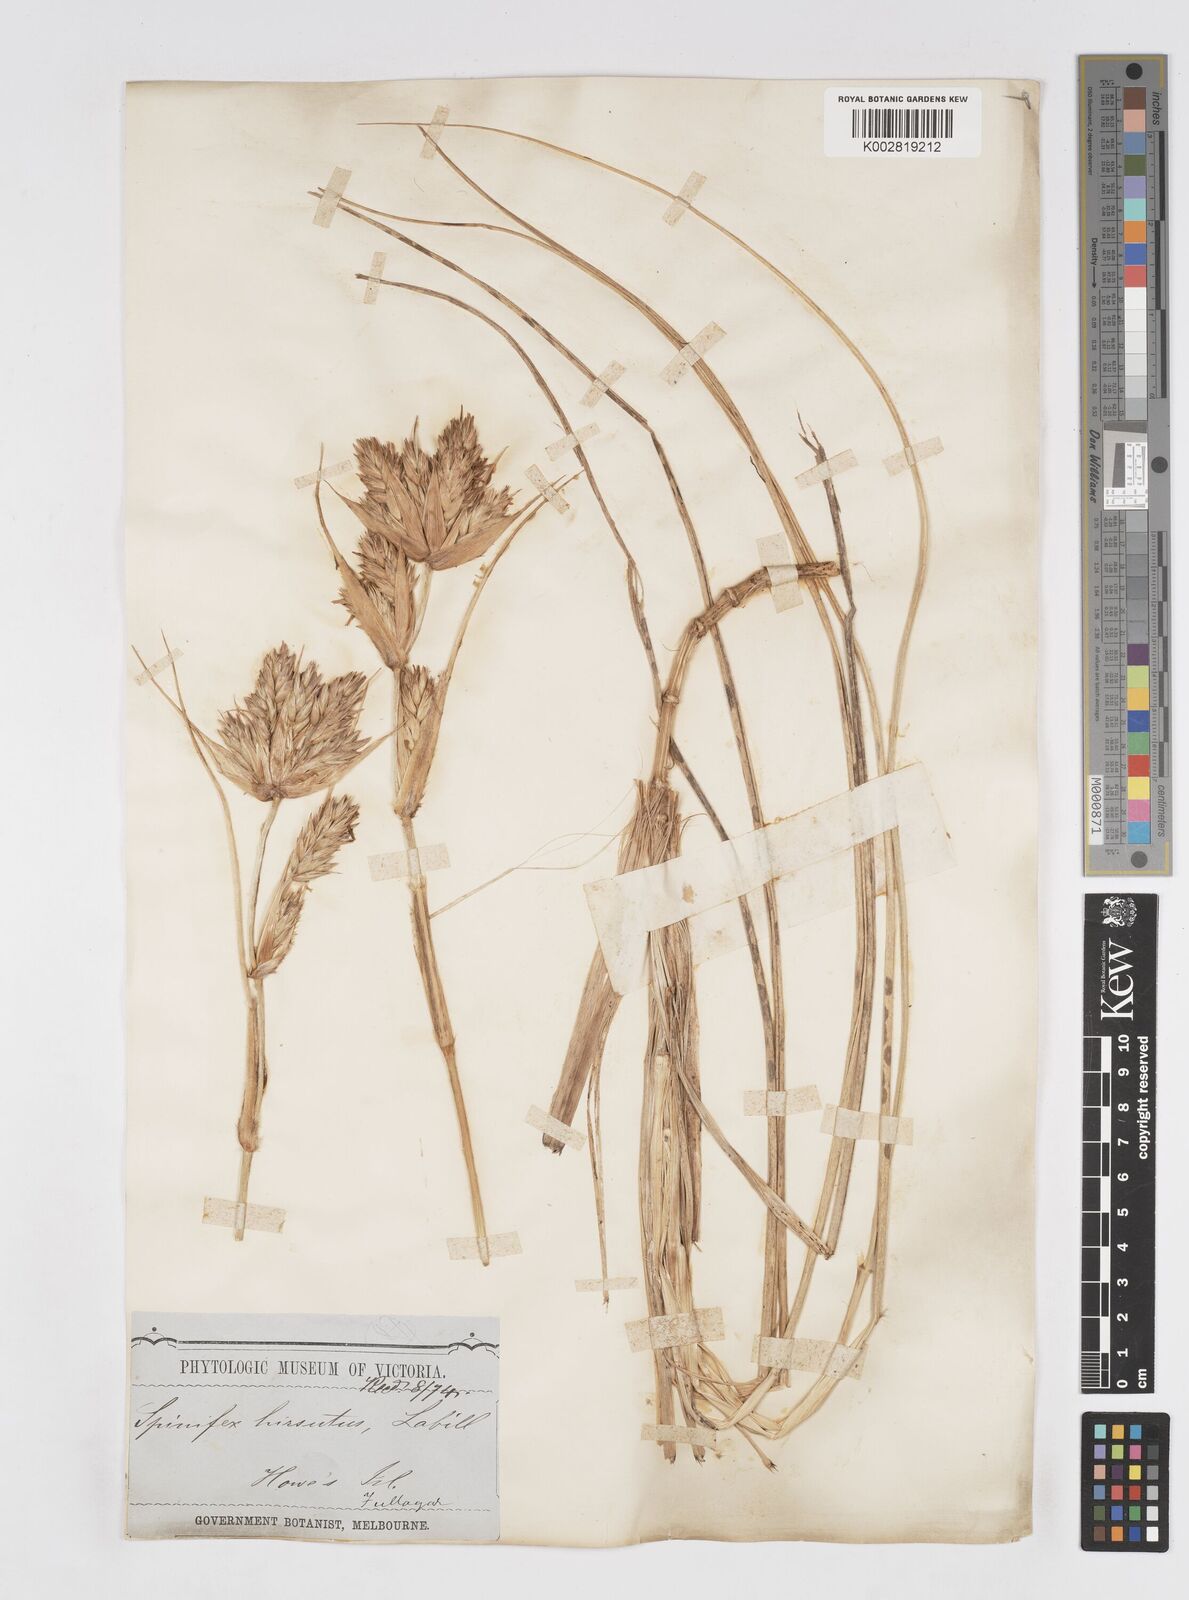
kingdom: Plantae
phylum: Tracheophyta
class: Liliopsida
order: Poales
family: Poaceae
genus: Spinifex
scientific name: Spinifex hirsutus
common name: Hairy spinifex
